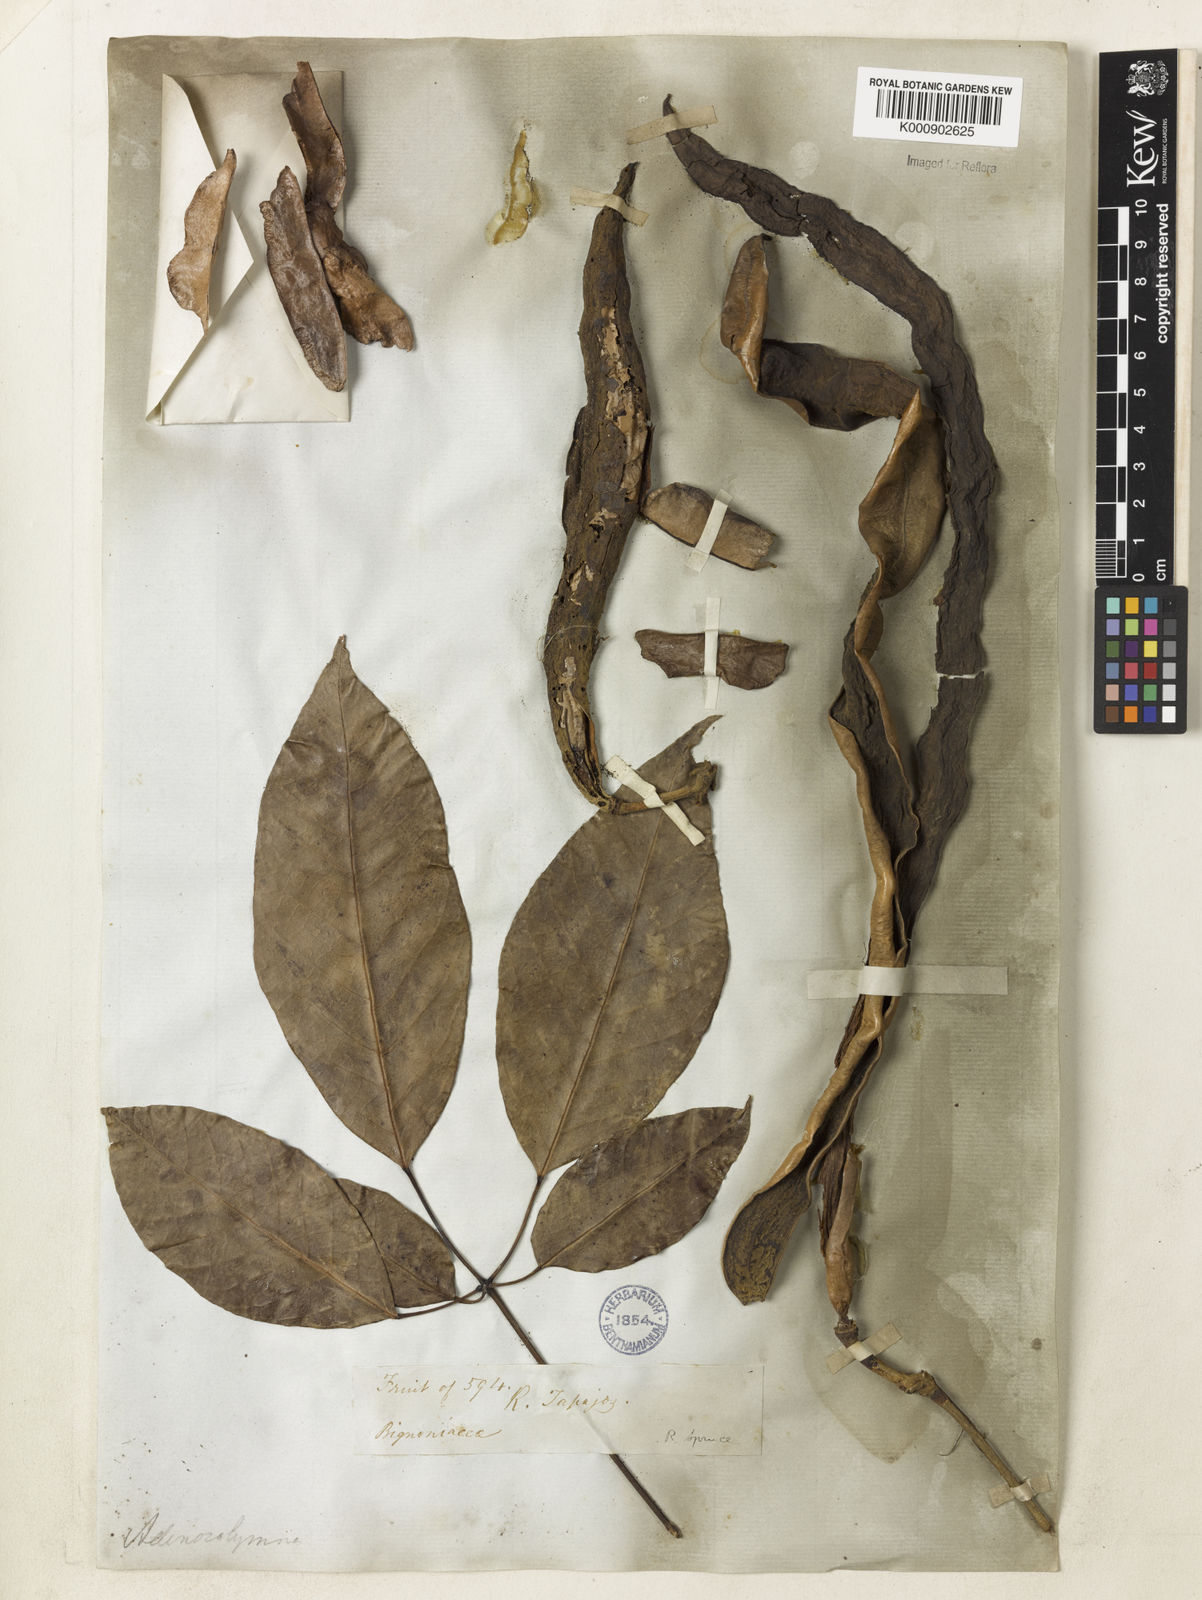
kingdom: Plantae
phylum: Tracheophyta
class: Magnoliopsida
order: Lamiales
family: Bignoniaceae
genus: Handroanthus
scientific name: Handroanthus barbatus
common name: Trumpet trees
